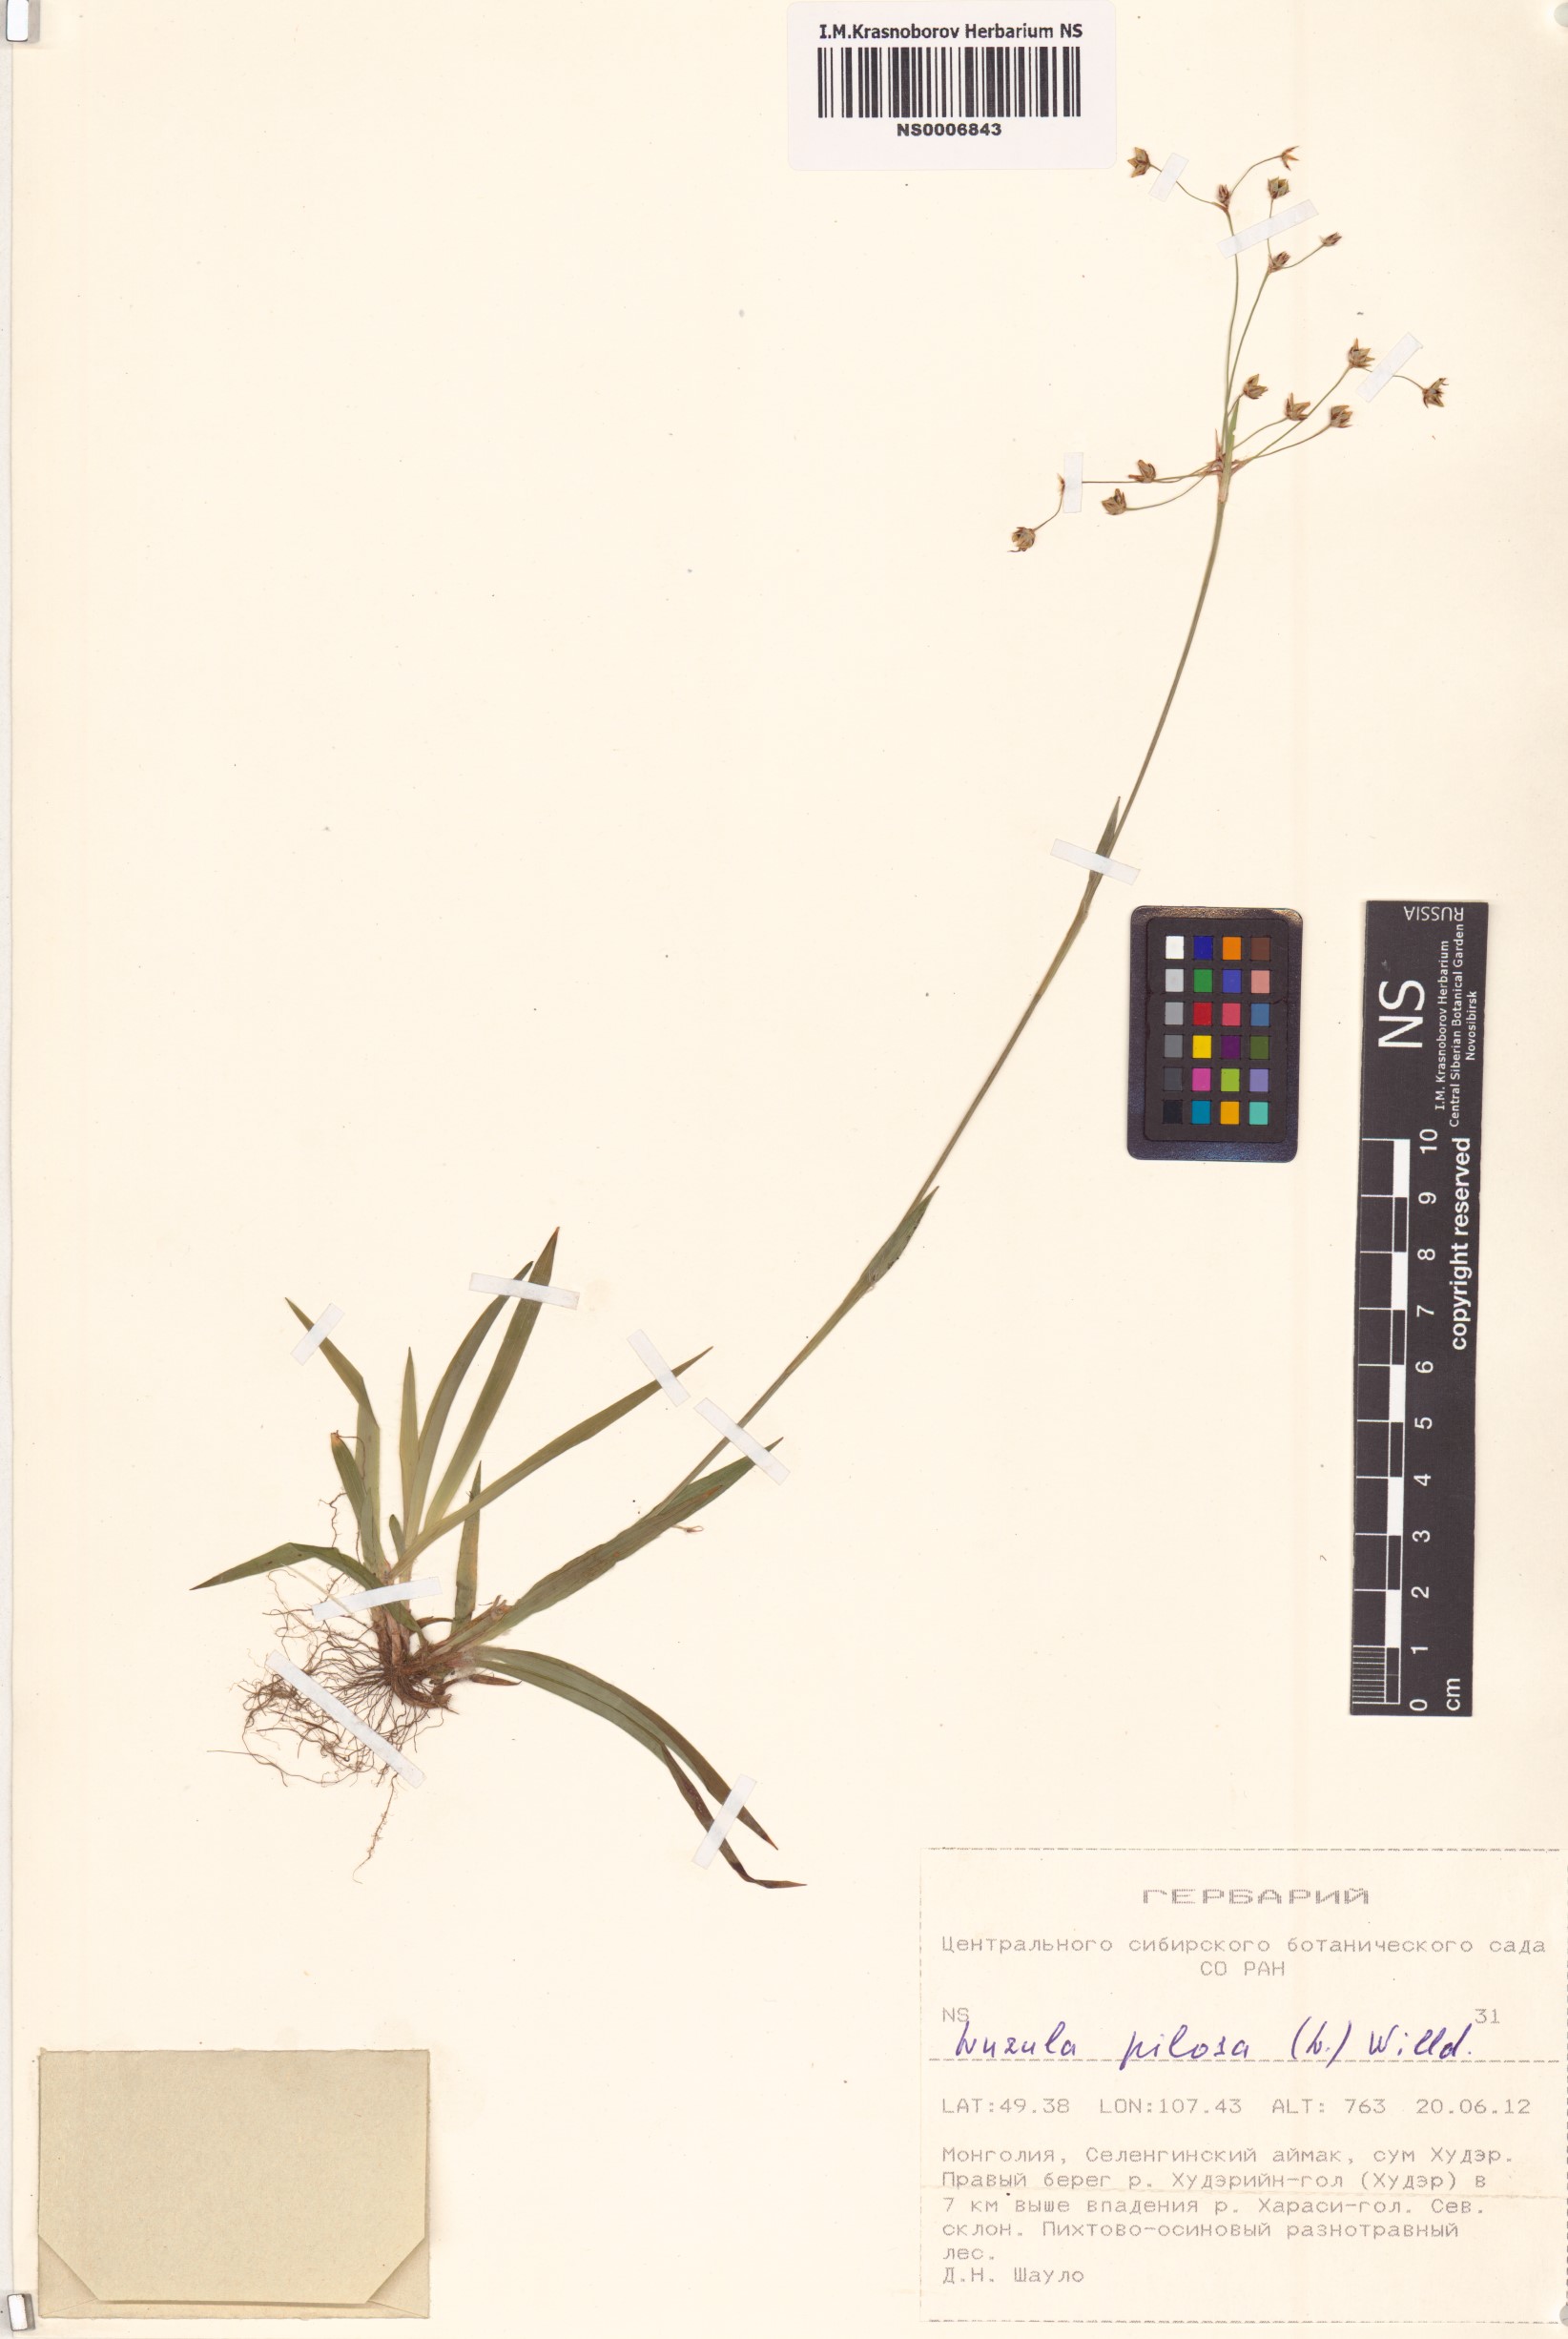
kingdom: Plantae
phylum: Tracheophyta
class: Liliopsida
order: Poales
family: Juncaceae
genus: Luzula
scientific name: Luzula pilosa
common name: Hairy wood-rush
